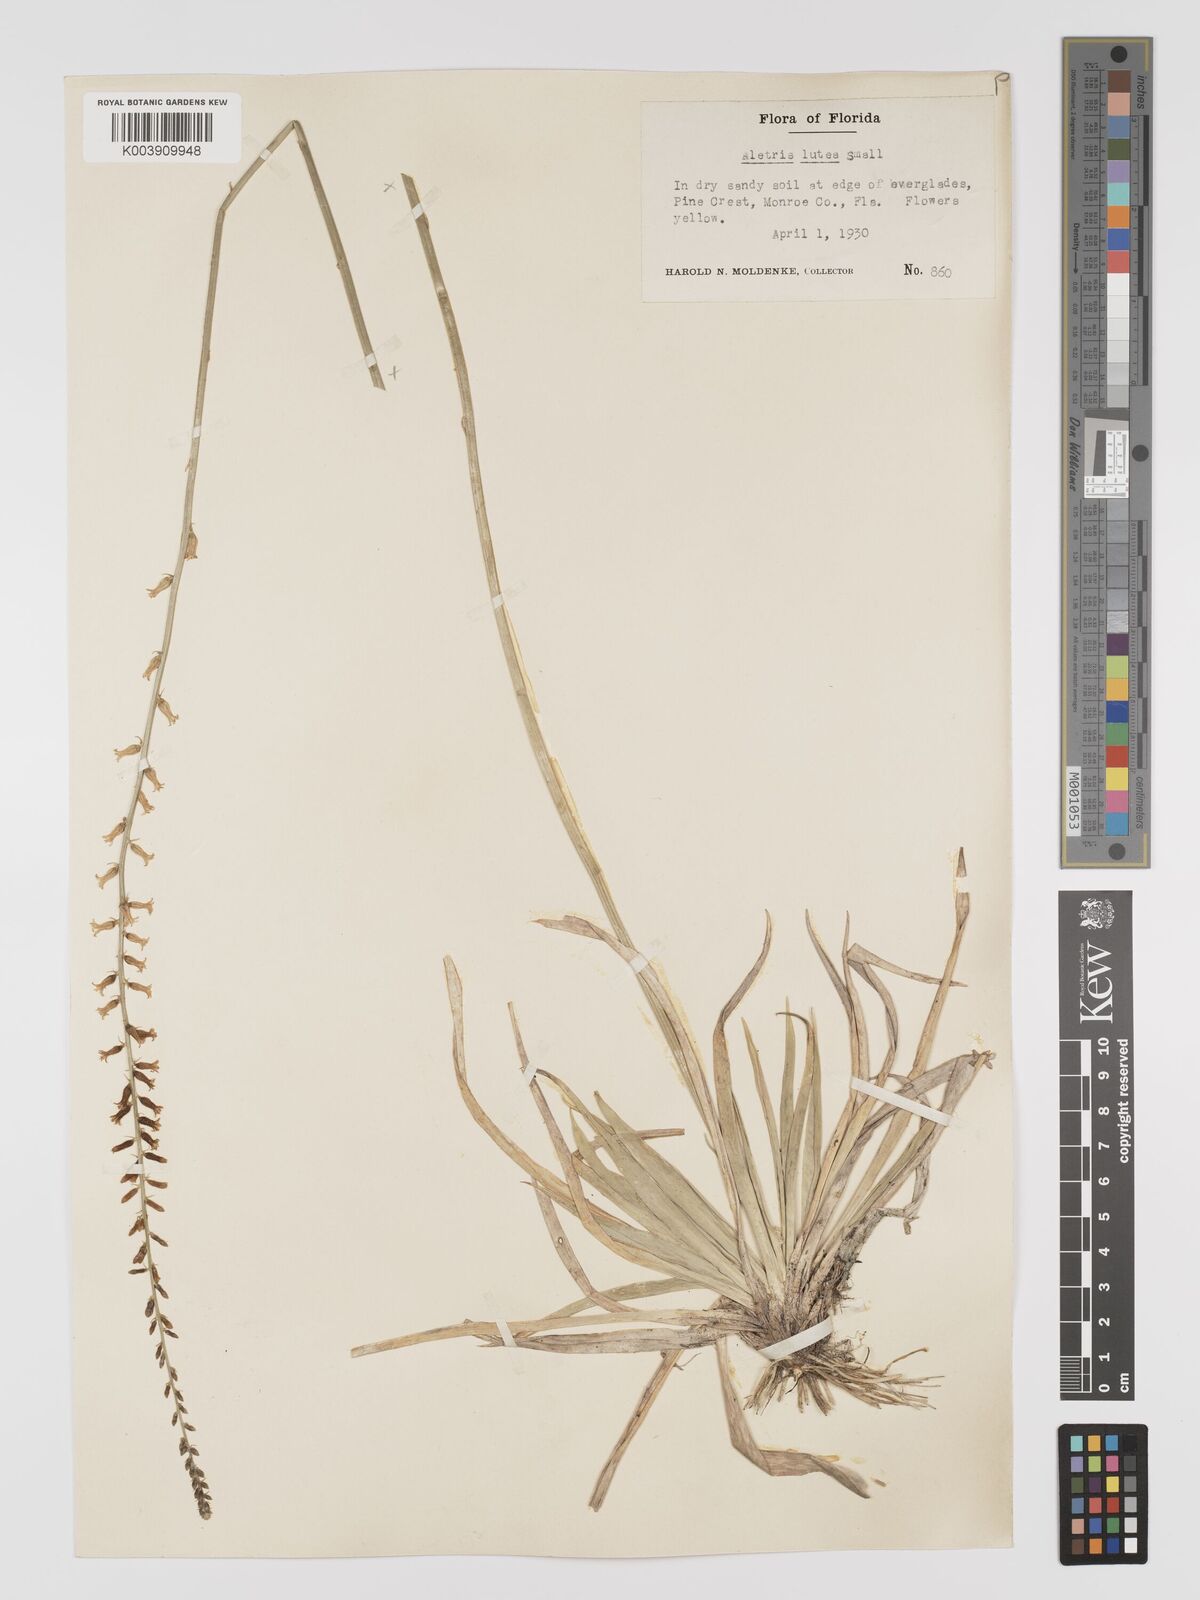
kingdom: Plantae
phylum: Tracheophyta
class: Liliopsida
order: Dioscoreales
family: Nartheciaceae
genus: Aletris
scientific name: Aletris lutea
